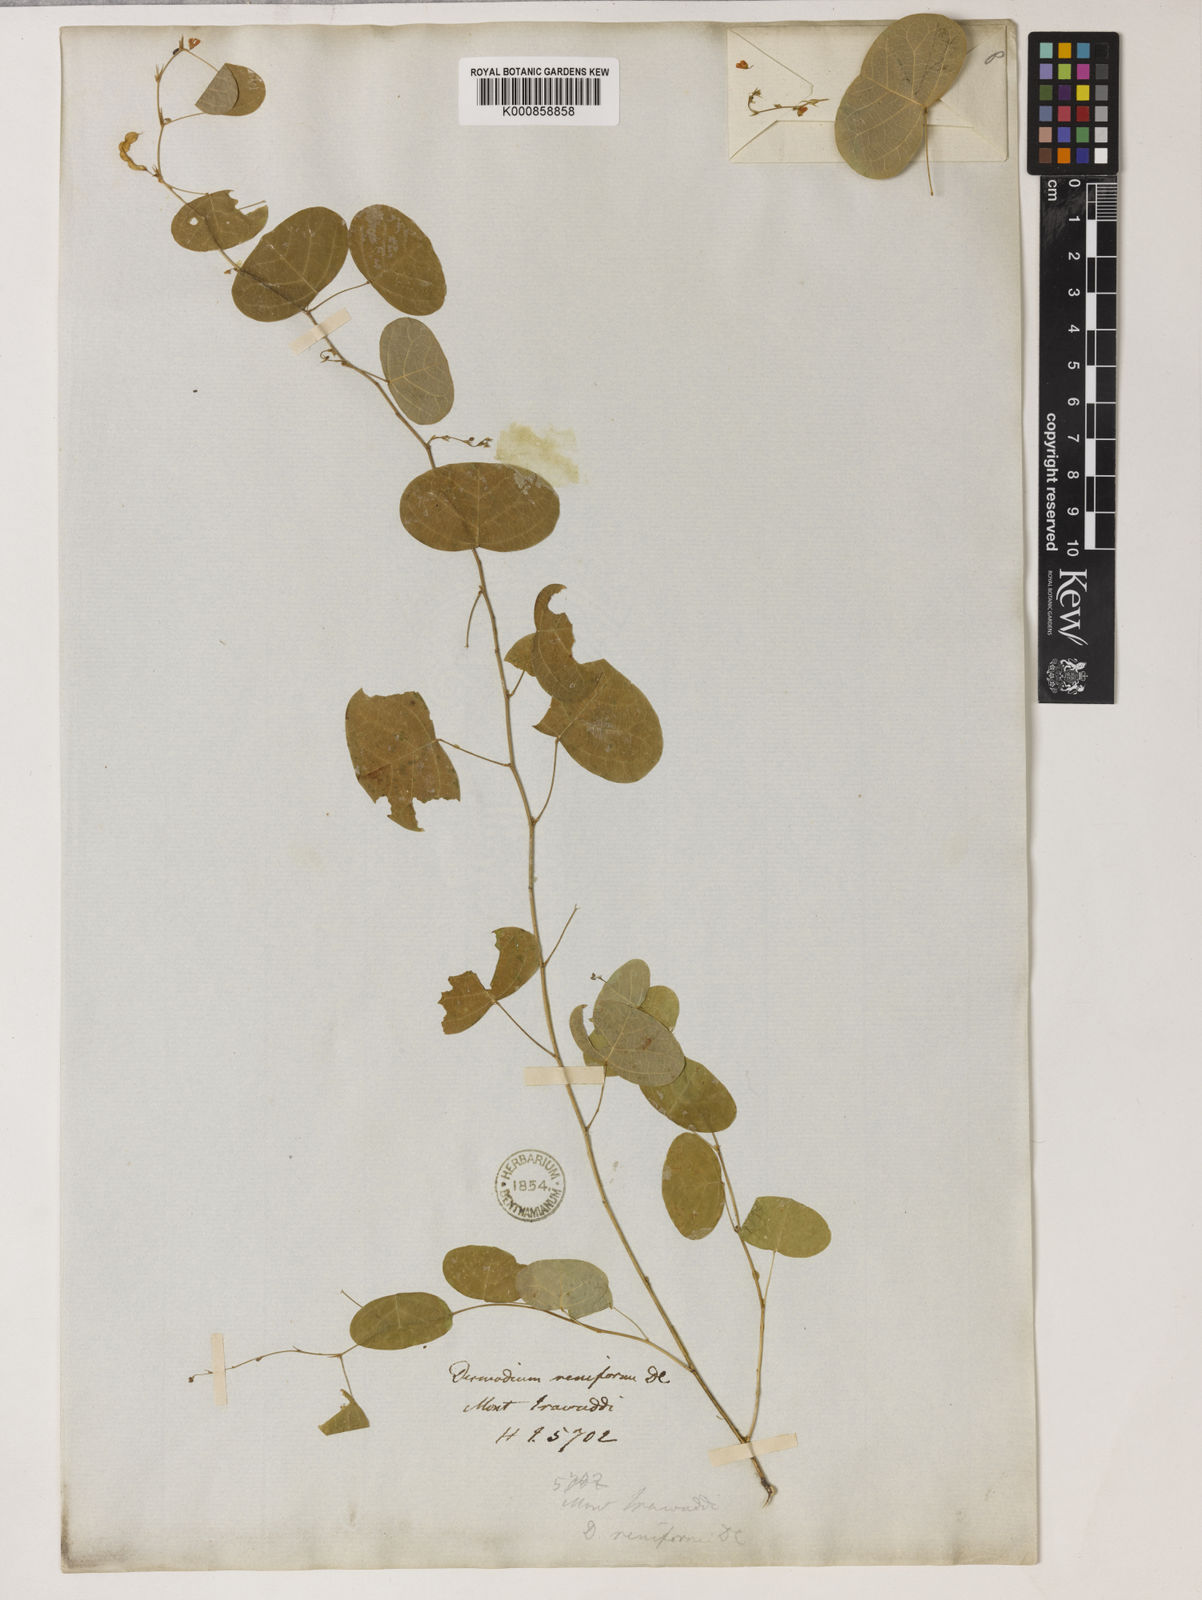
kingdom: Plantae
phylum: Tracheophyta
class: Magnoliopsida
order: Fabales
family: Fabaceae
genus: Huangtcia
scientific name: Huangtcia renifolia
